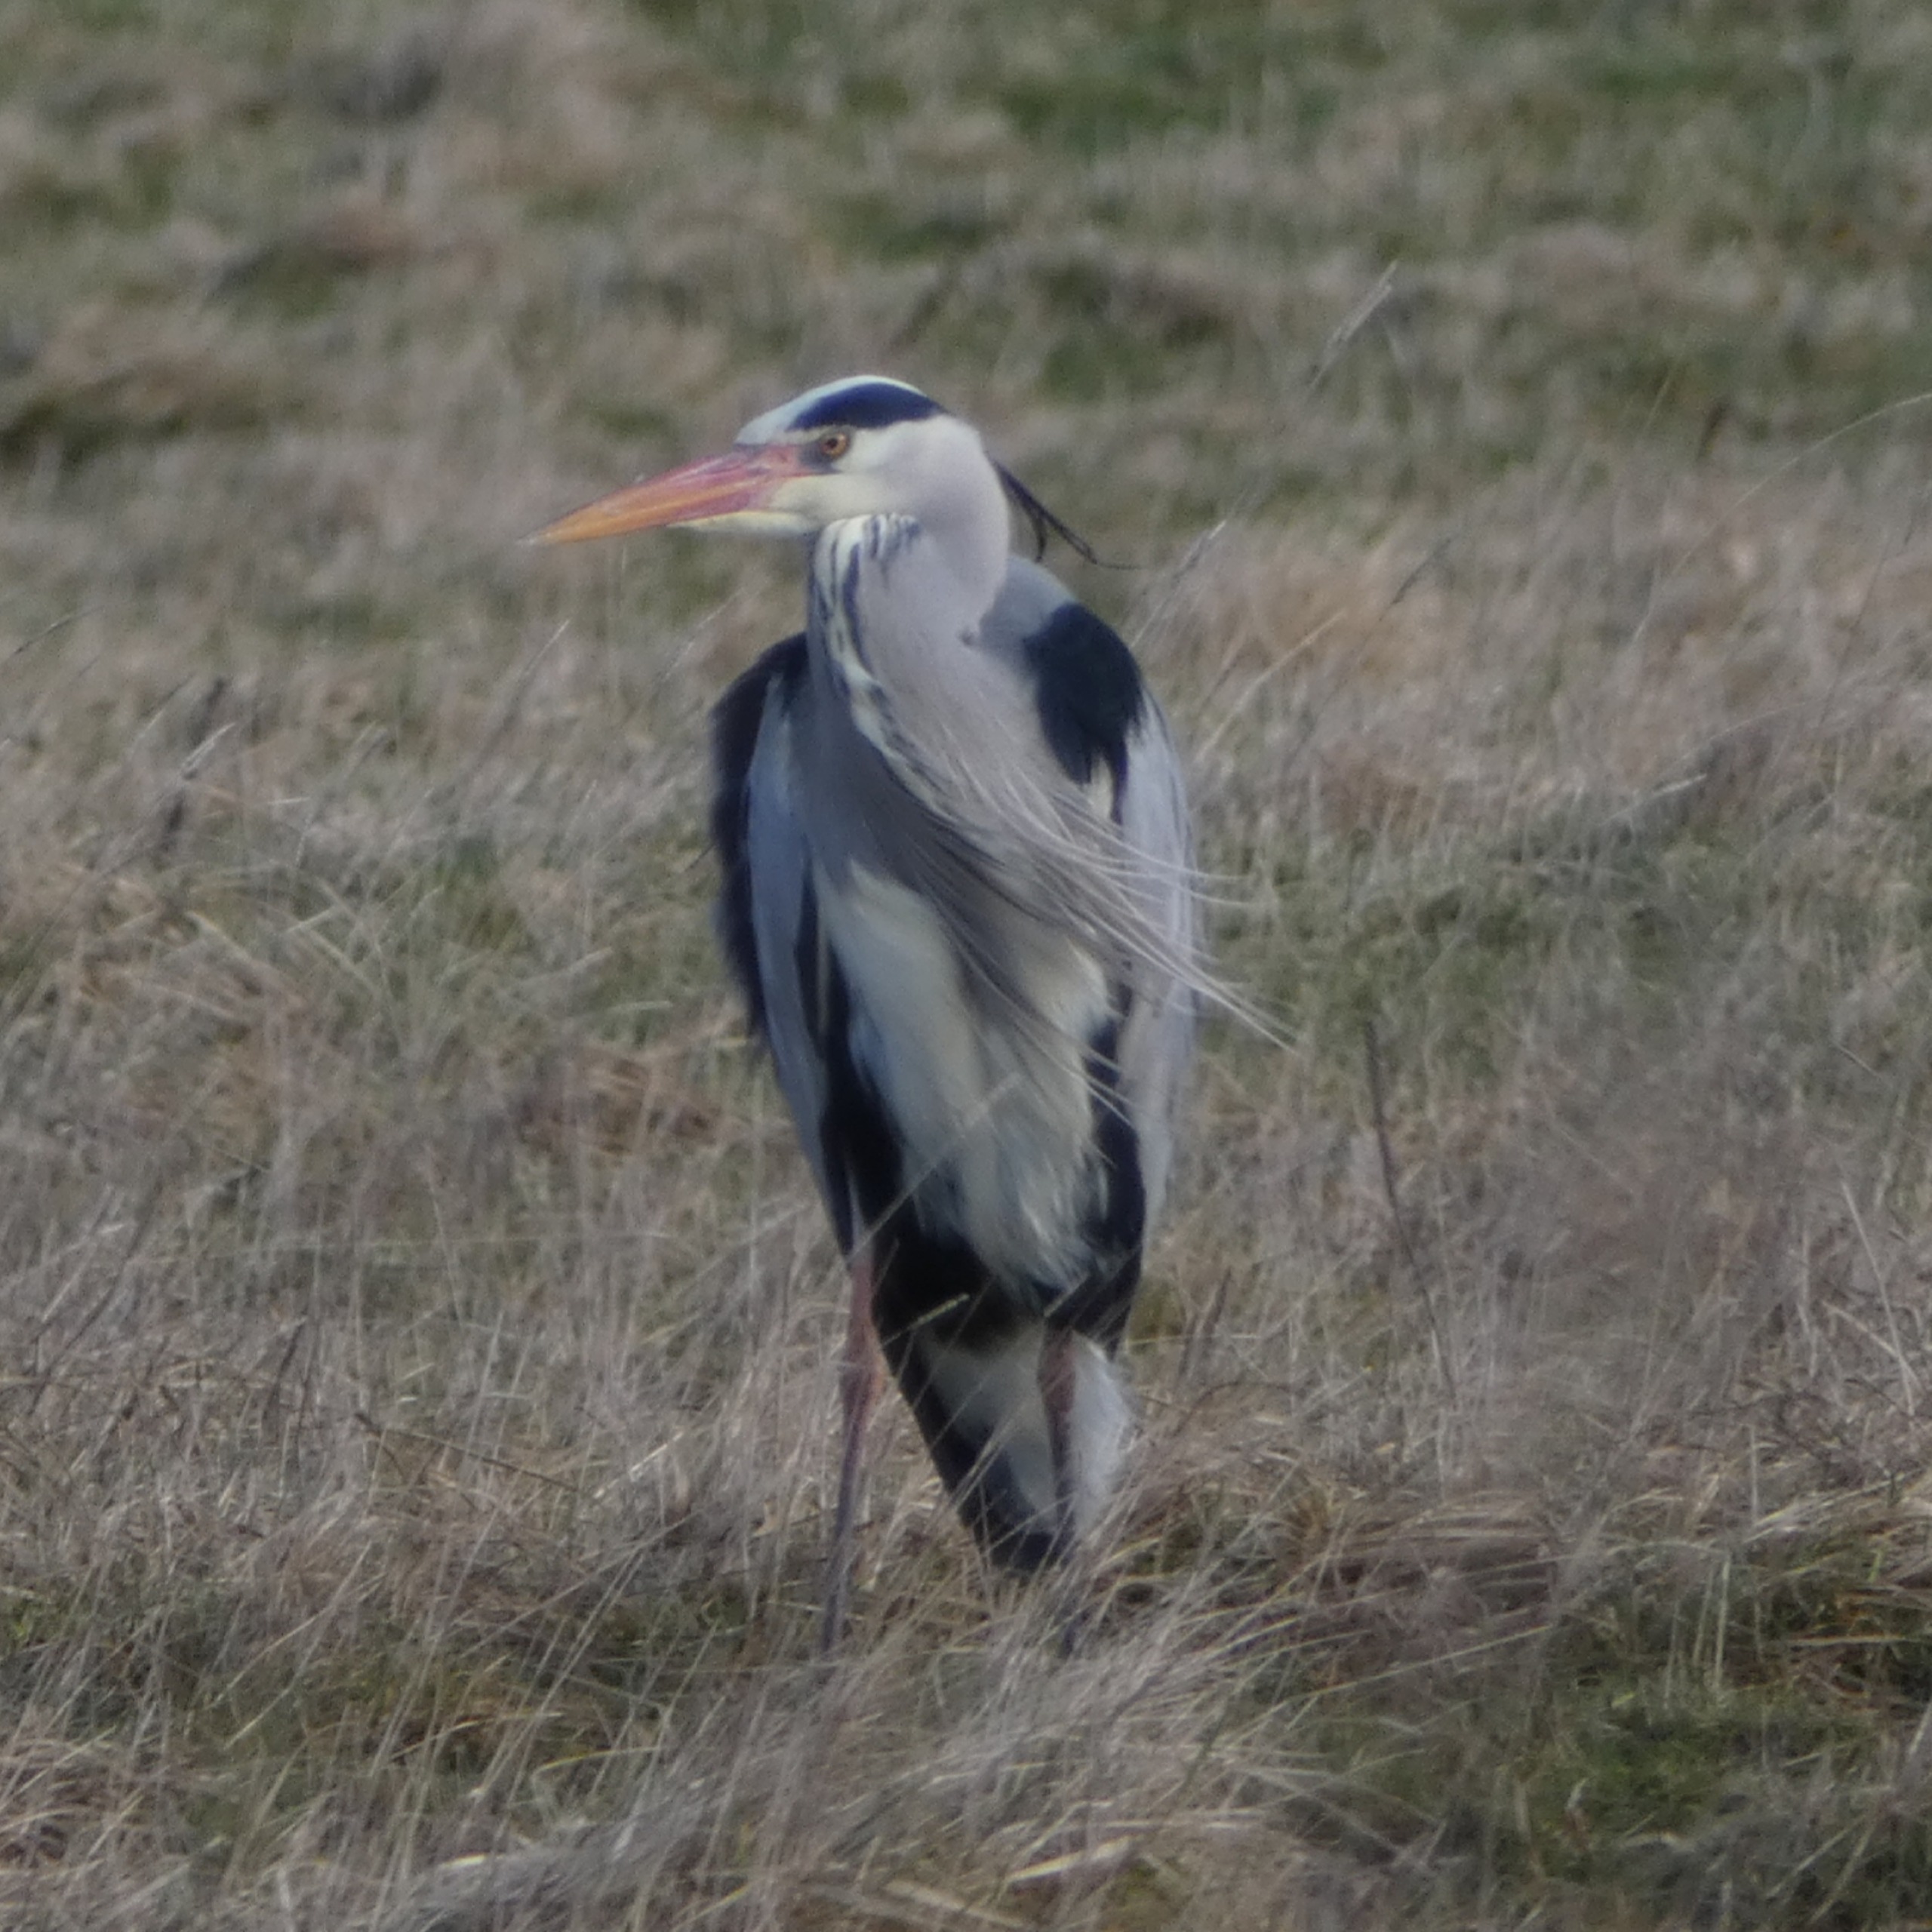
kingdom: Animalia
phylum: Chordata
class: Aves
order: Pelecaniformes
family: Ardeidae
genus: Ardea
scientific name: Ardea cinerea
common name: Fiskehejre
